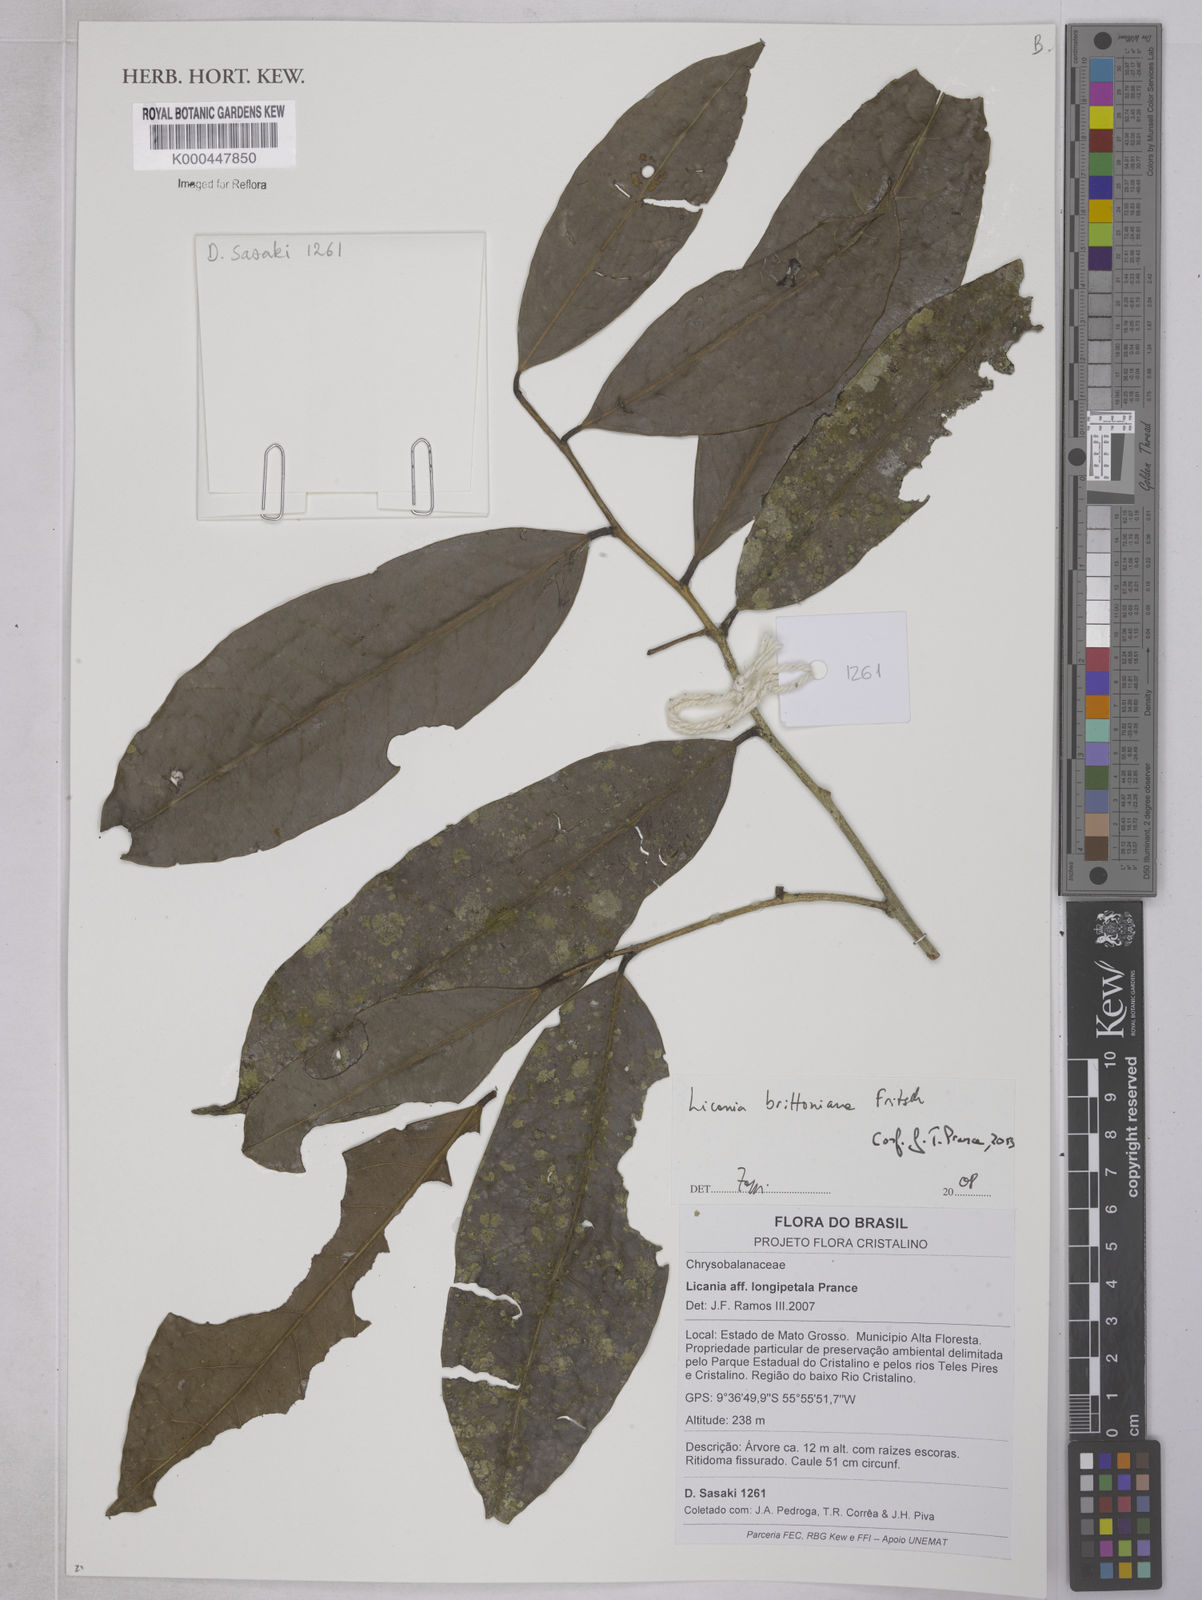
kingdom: Plantae
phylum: Tracheophyta
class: Magnoliopsida
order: Malpighiales
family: Chrysobalanaceae
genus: Moquilea
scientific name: Moquilea brittoniana
